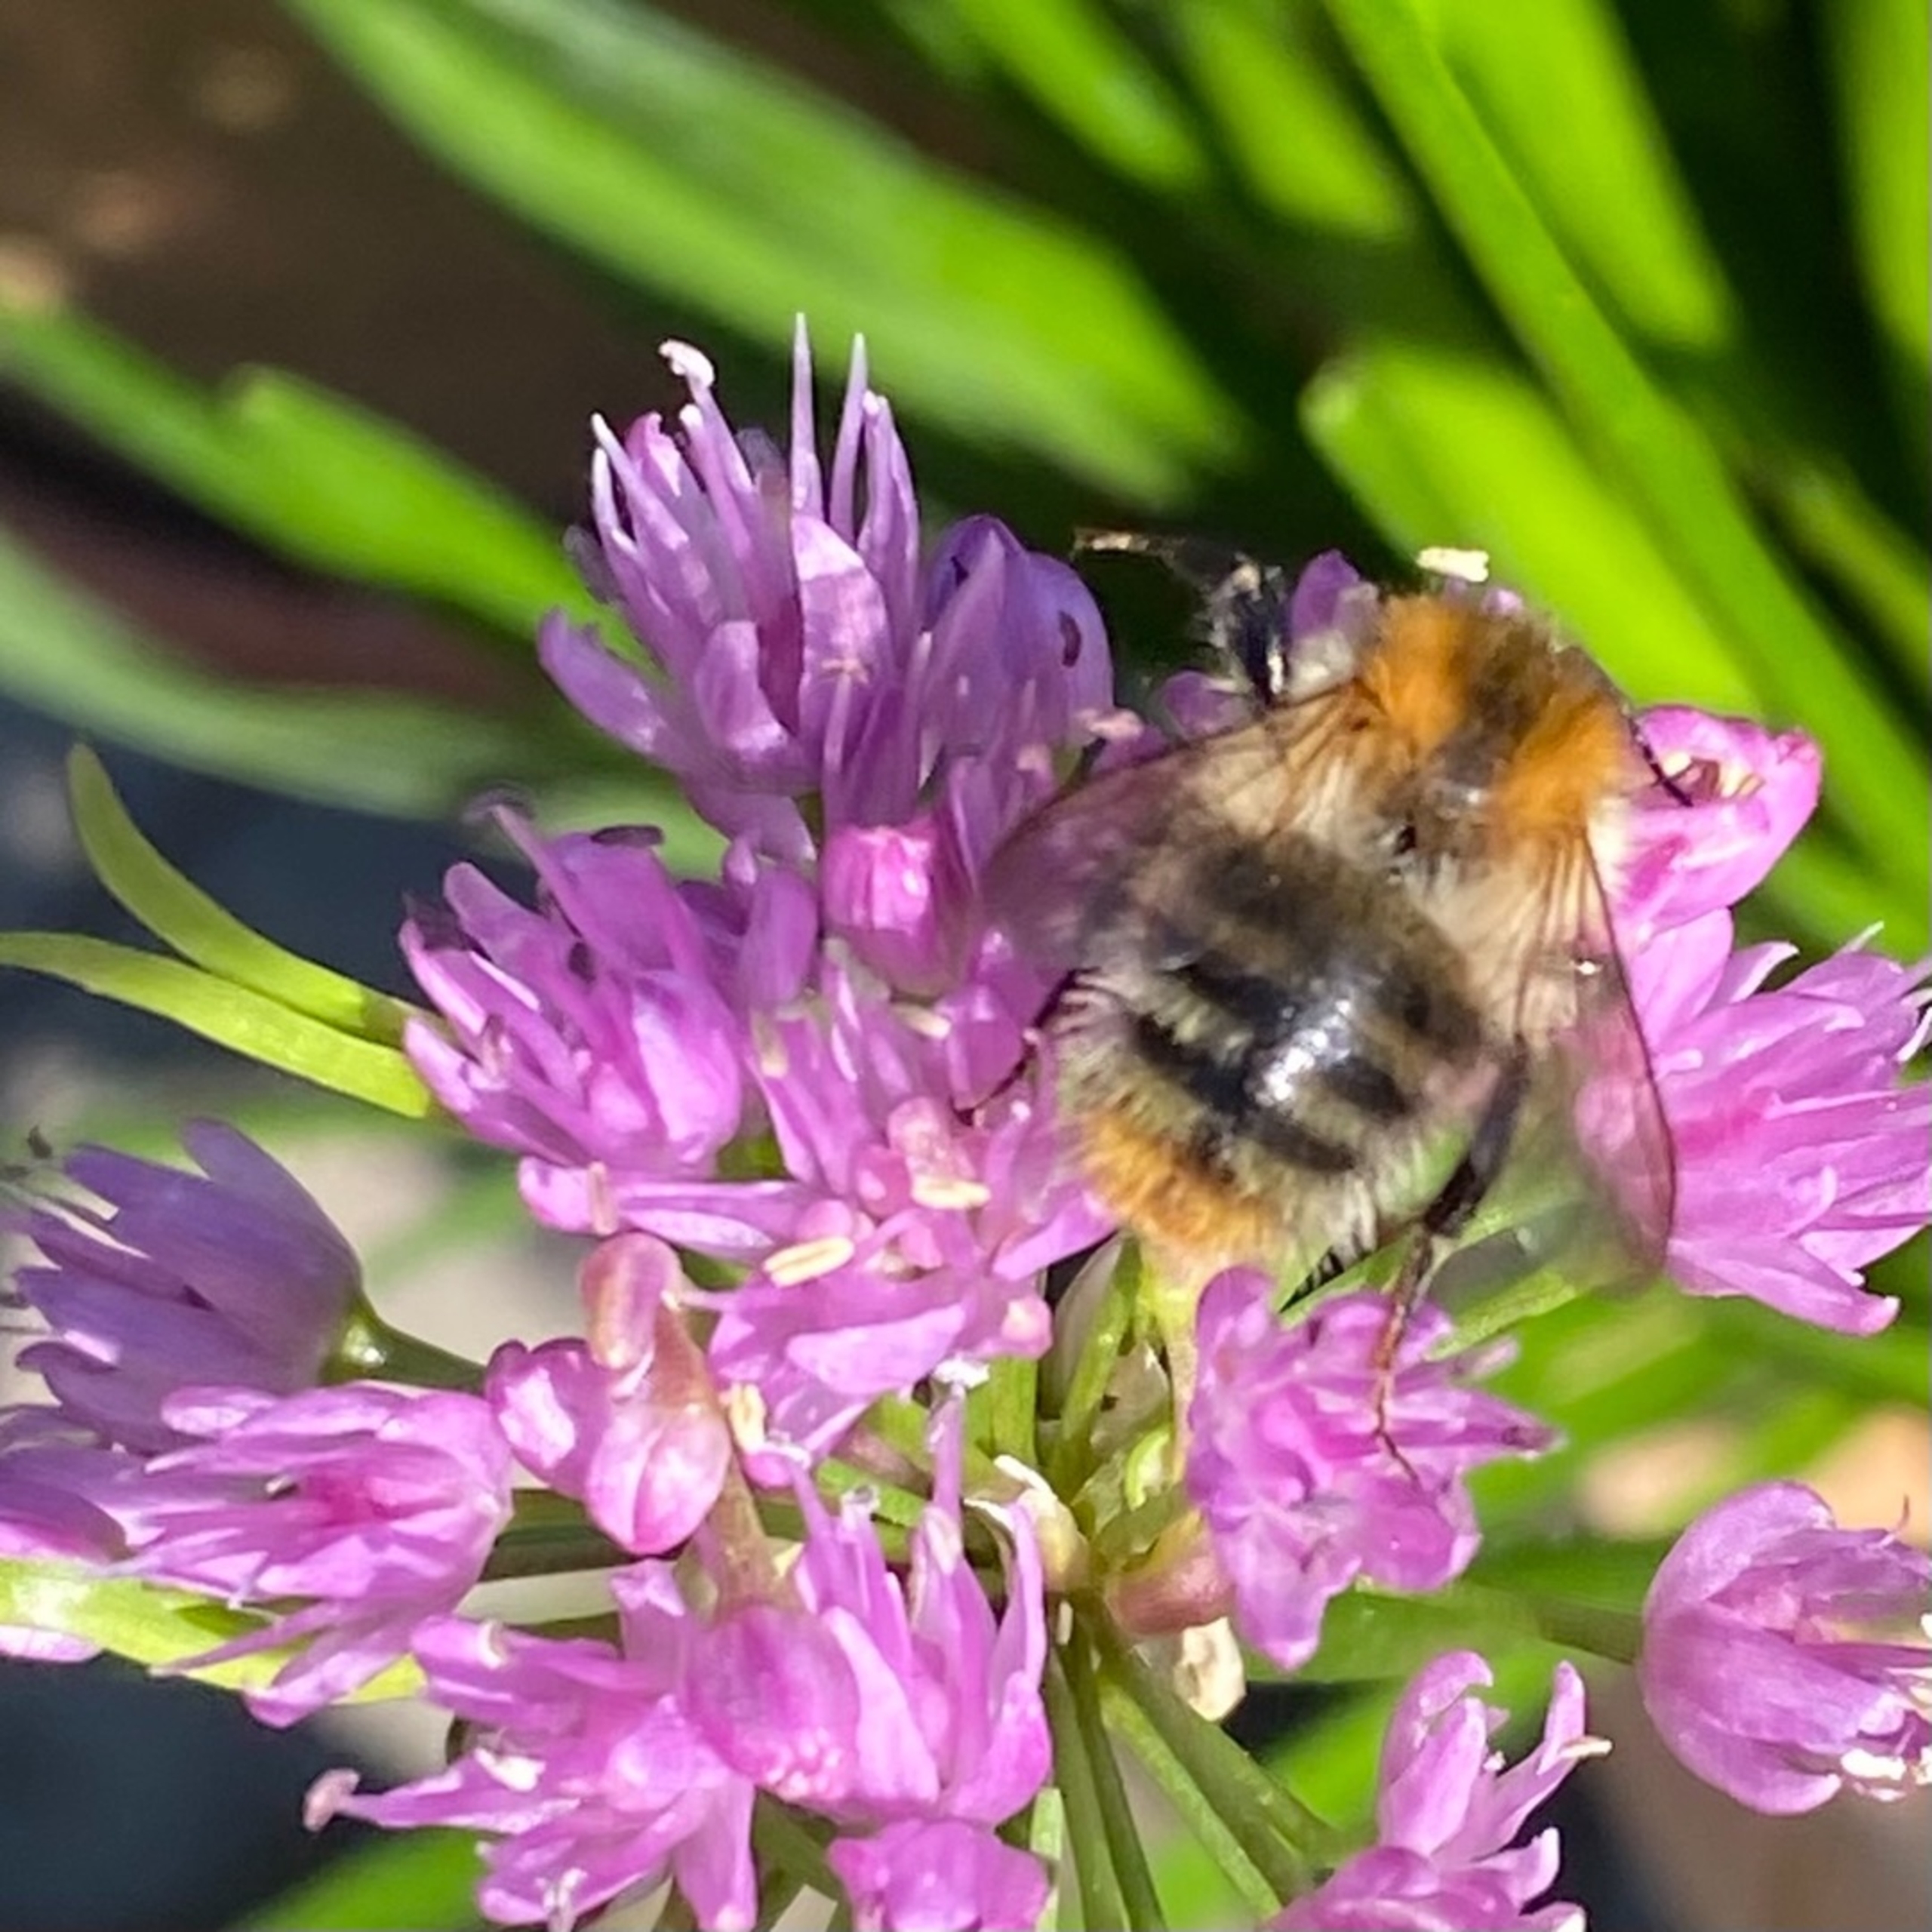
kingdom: Animalia
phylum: Arthropoda
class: Insecta
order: Hymenoptera
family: Apidae
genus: Bombus
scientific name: Bombus pascuorum
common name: Agerhumle
